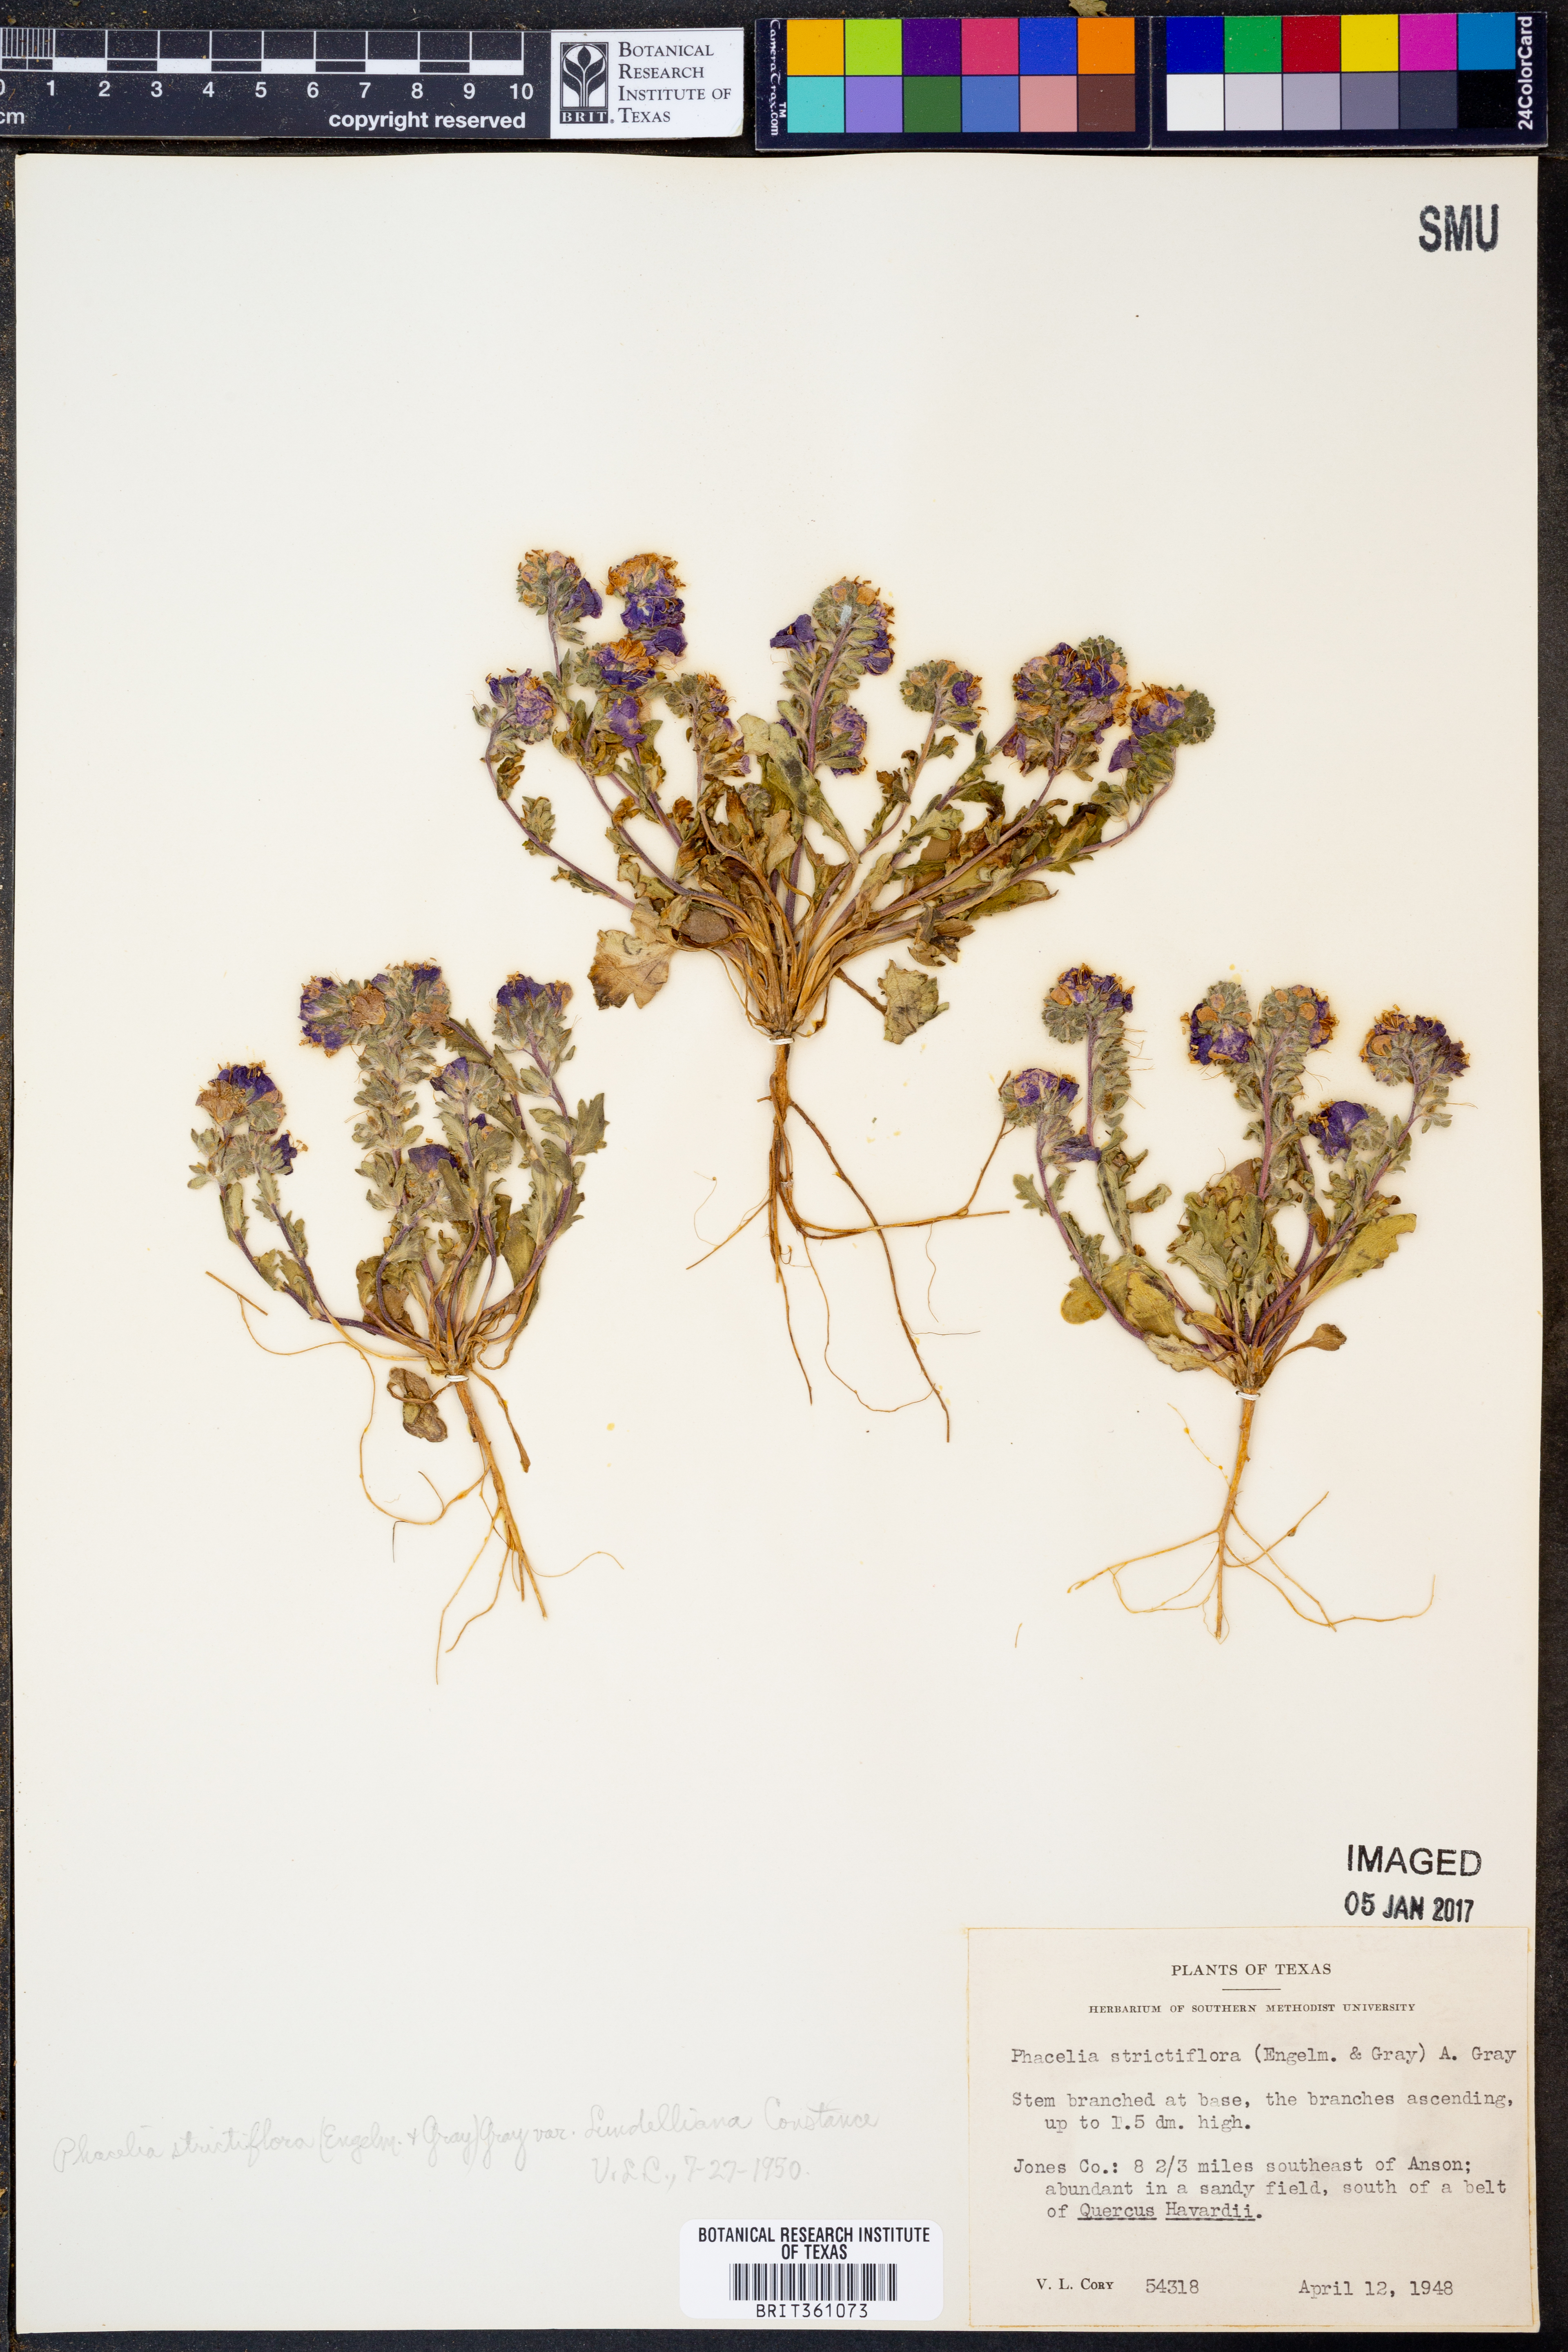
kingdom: Plantae
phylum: Tracheophyta
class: Magnoliopsida
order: Boraginales
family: Hydrophyllaceae
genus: Phacelia
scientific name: Phacelia strictiflora
